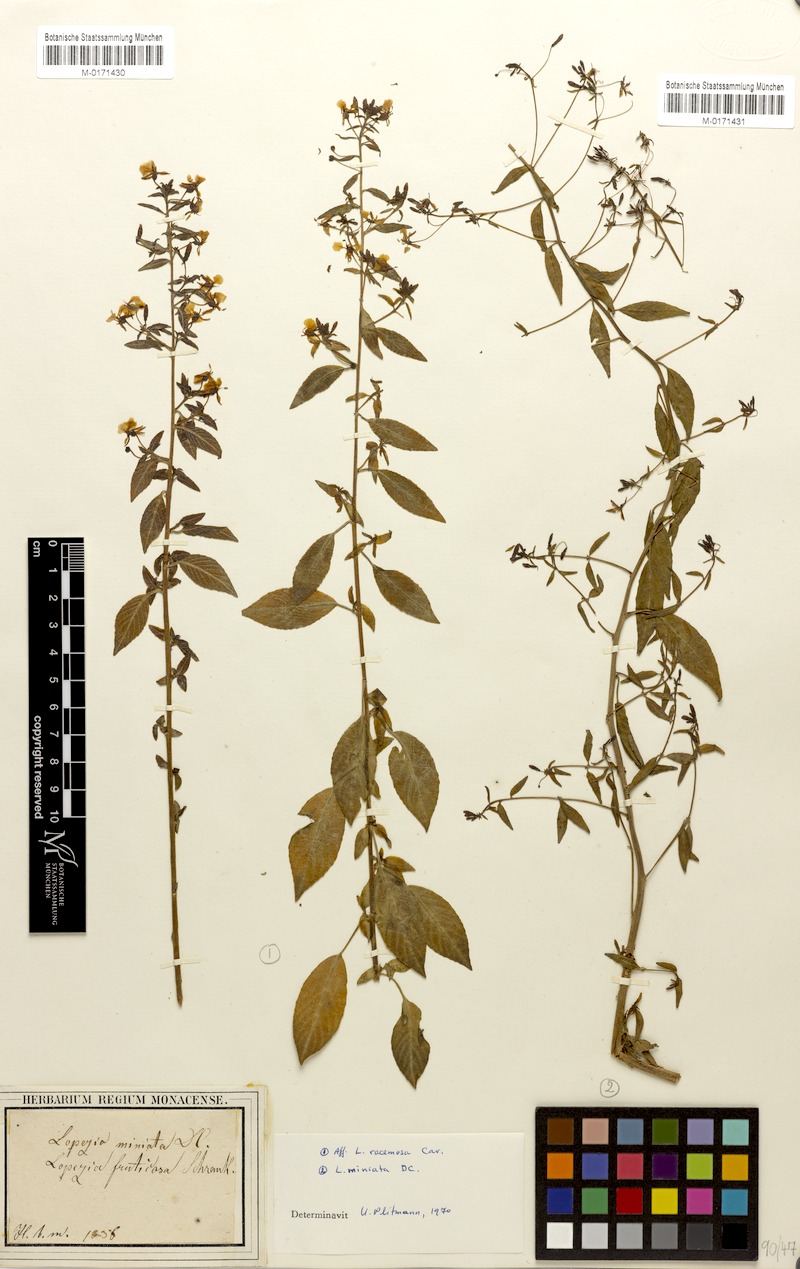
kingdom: Plantae
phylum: Tracheophyta
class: Magnoliopsida
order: Myrtales
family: Onagraceae
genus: Lopezia
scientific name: Lopezia racemosa
